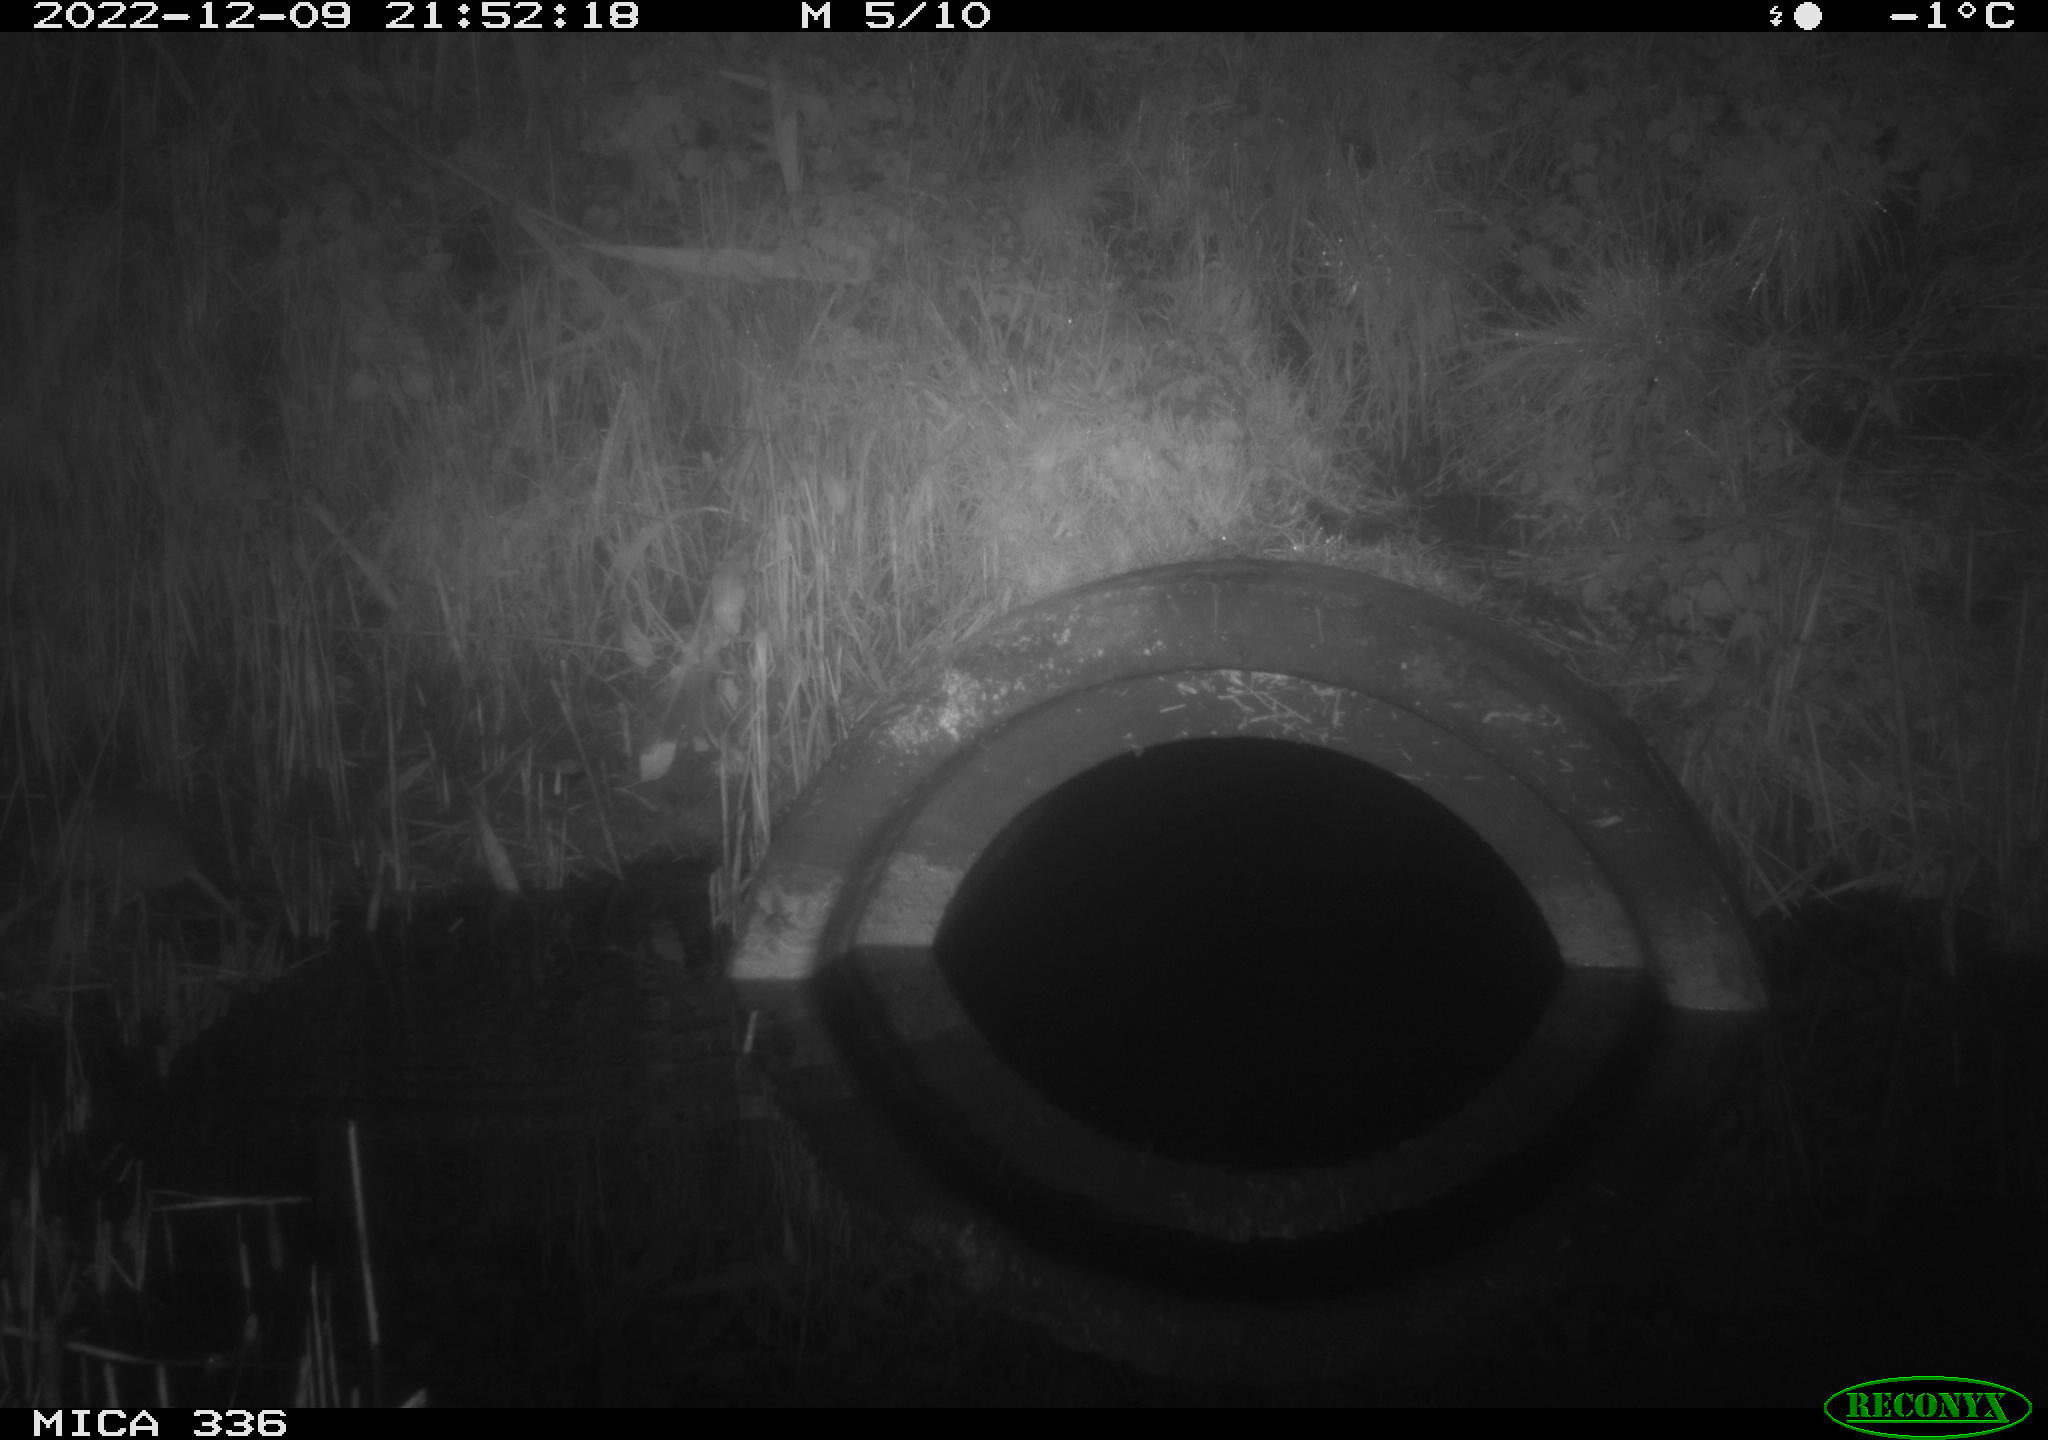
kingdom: Animalia
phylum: Chordata
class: Mammalia
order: Rodentia
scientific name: Rodentia
